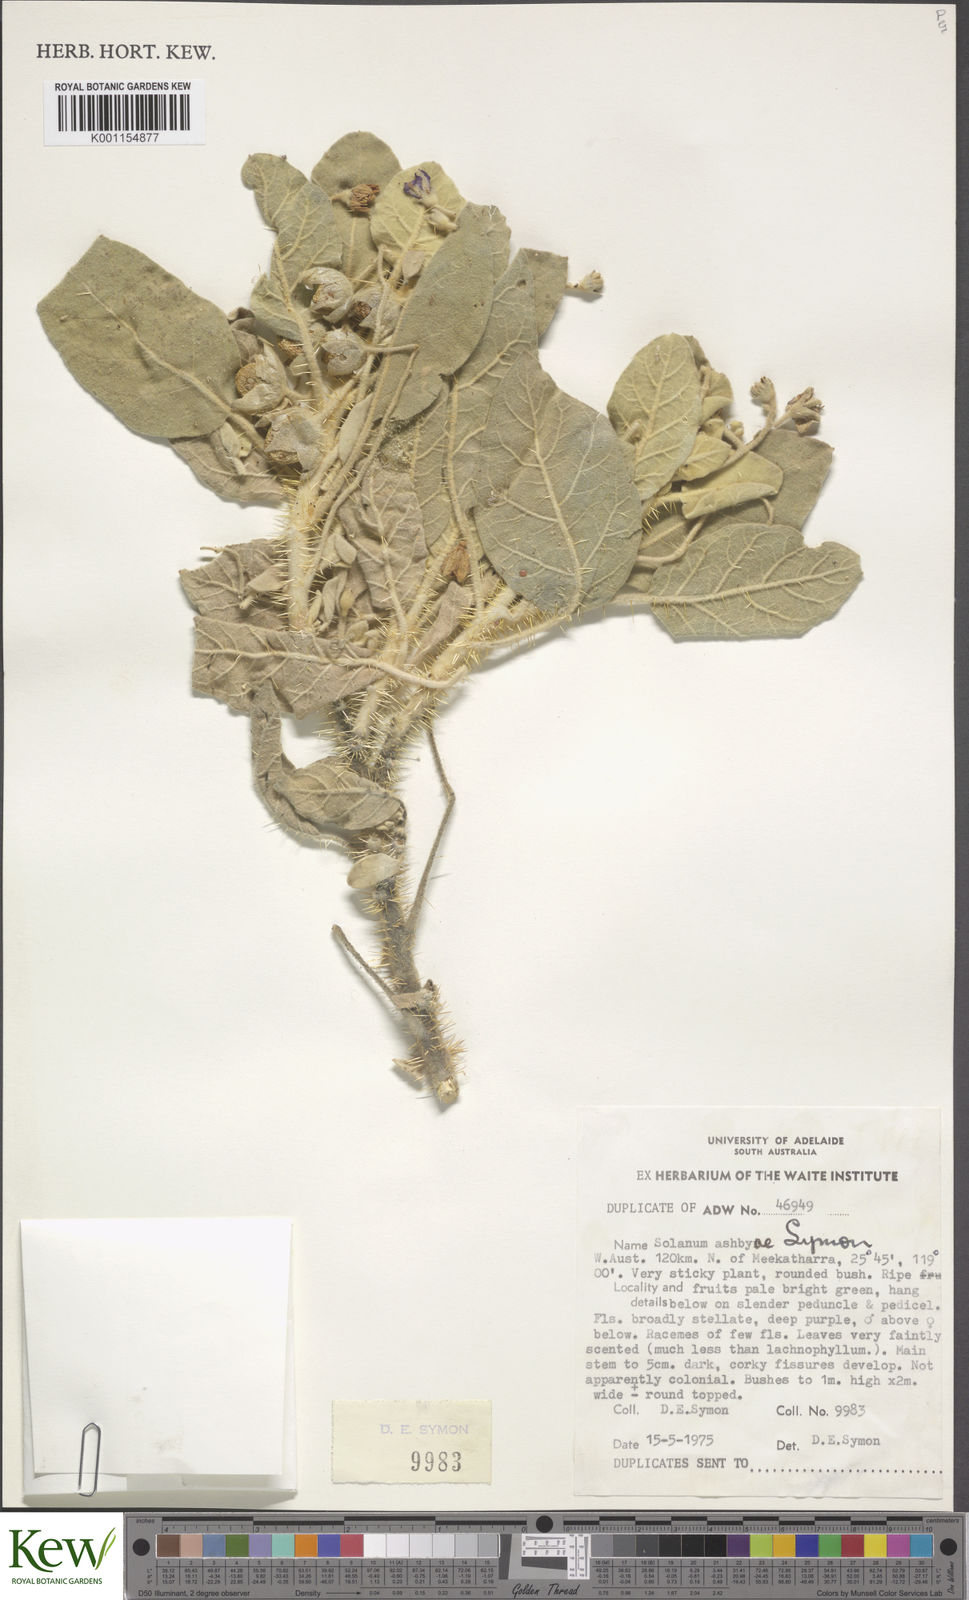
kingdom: Plantae
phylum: Tracheophyta
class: Magnoliopsida
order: Solanales
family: Solanaceae
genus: Solanum
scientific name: Solanum ashbyae
